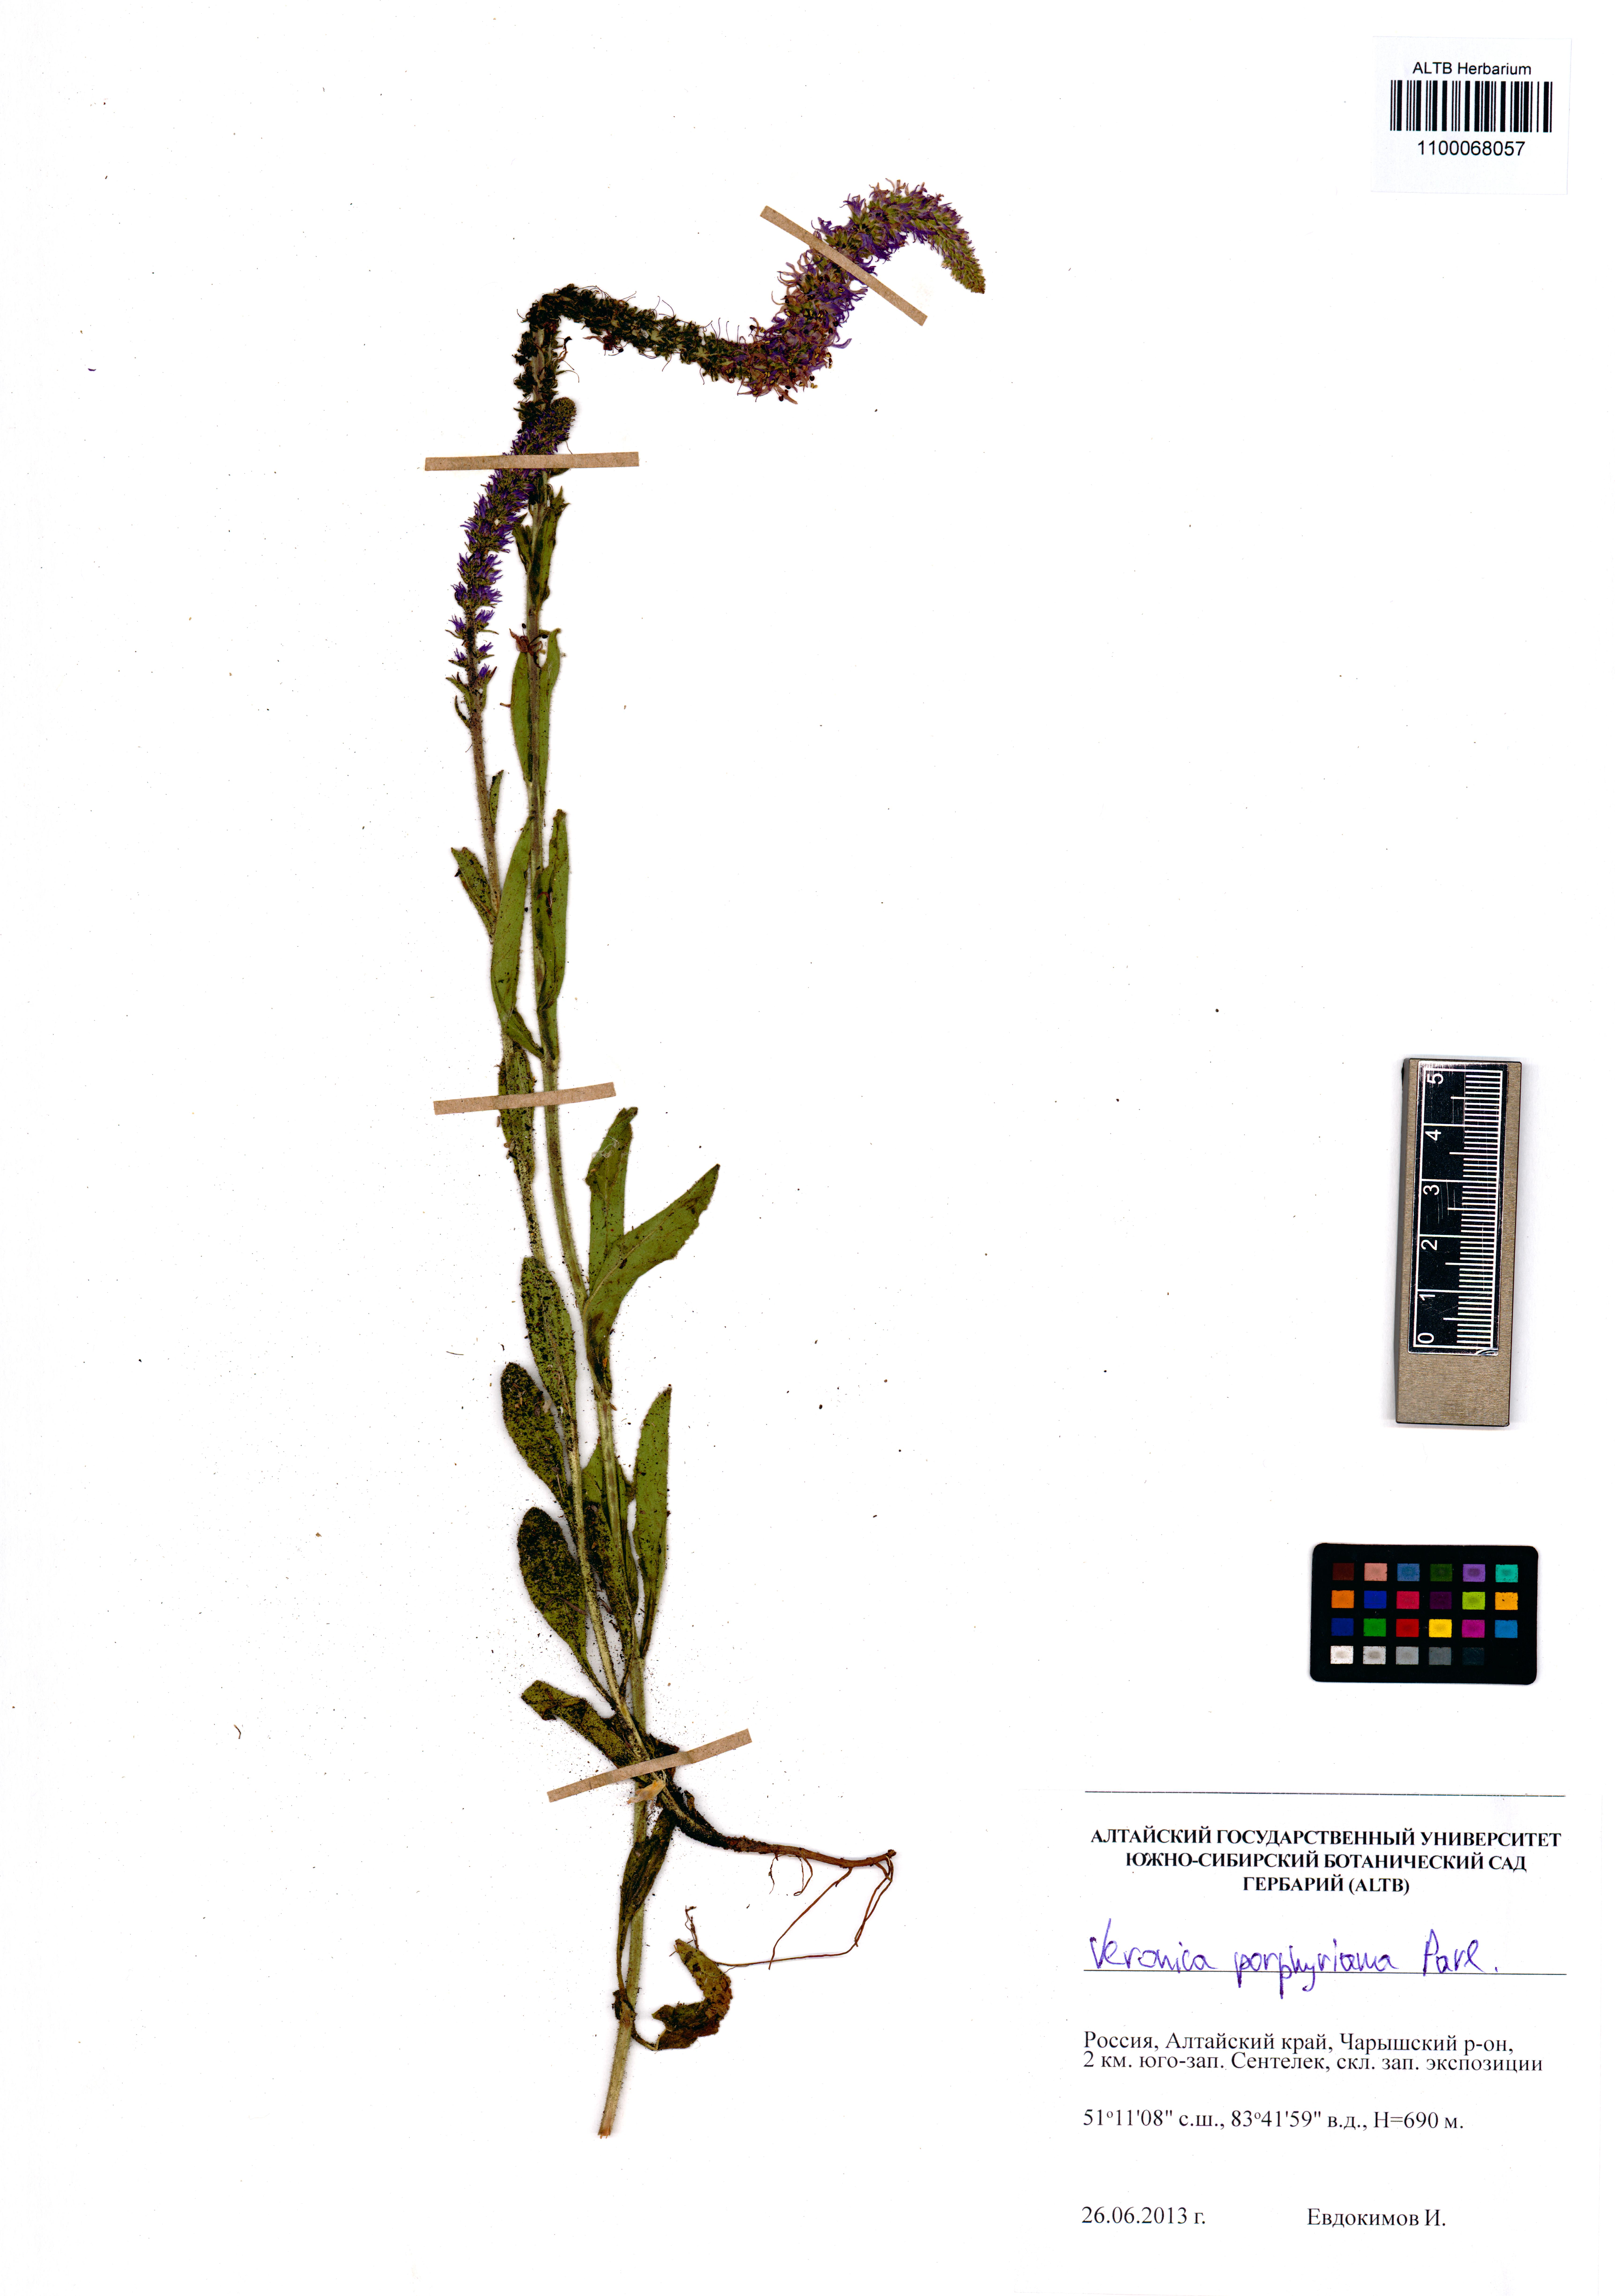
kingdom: Plantae
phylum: Tracheophyta
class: Magnoliopsida
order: Lamiales
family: Plantaginaceae
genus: Veronica
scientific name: Veronica porphyriana
